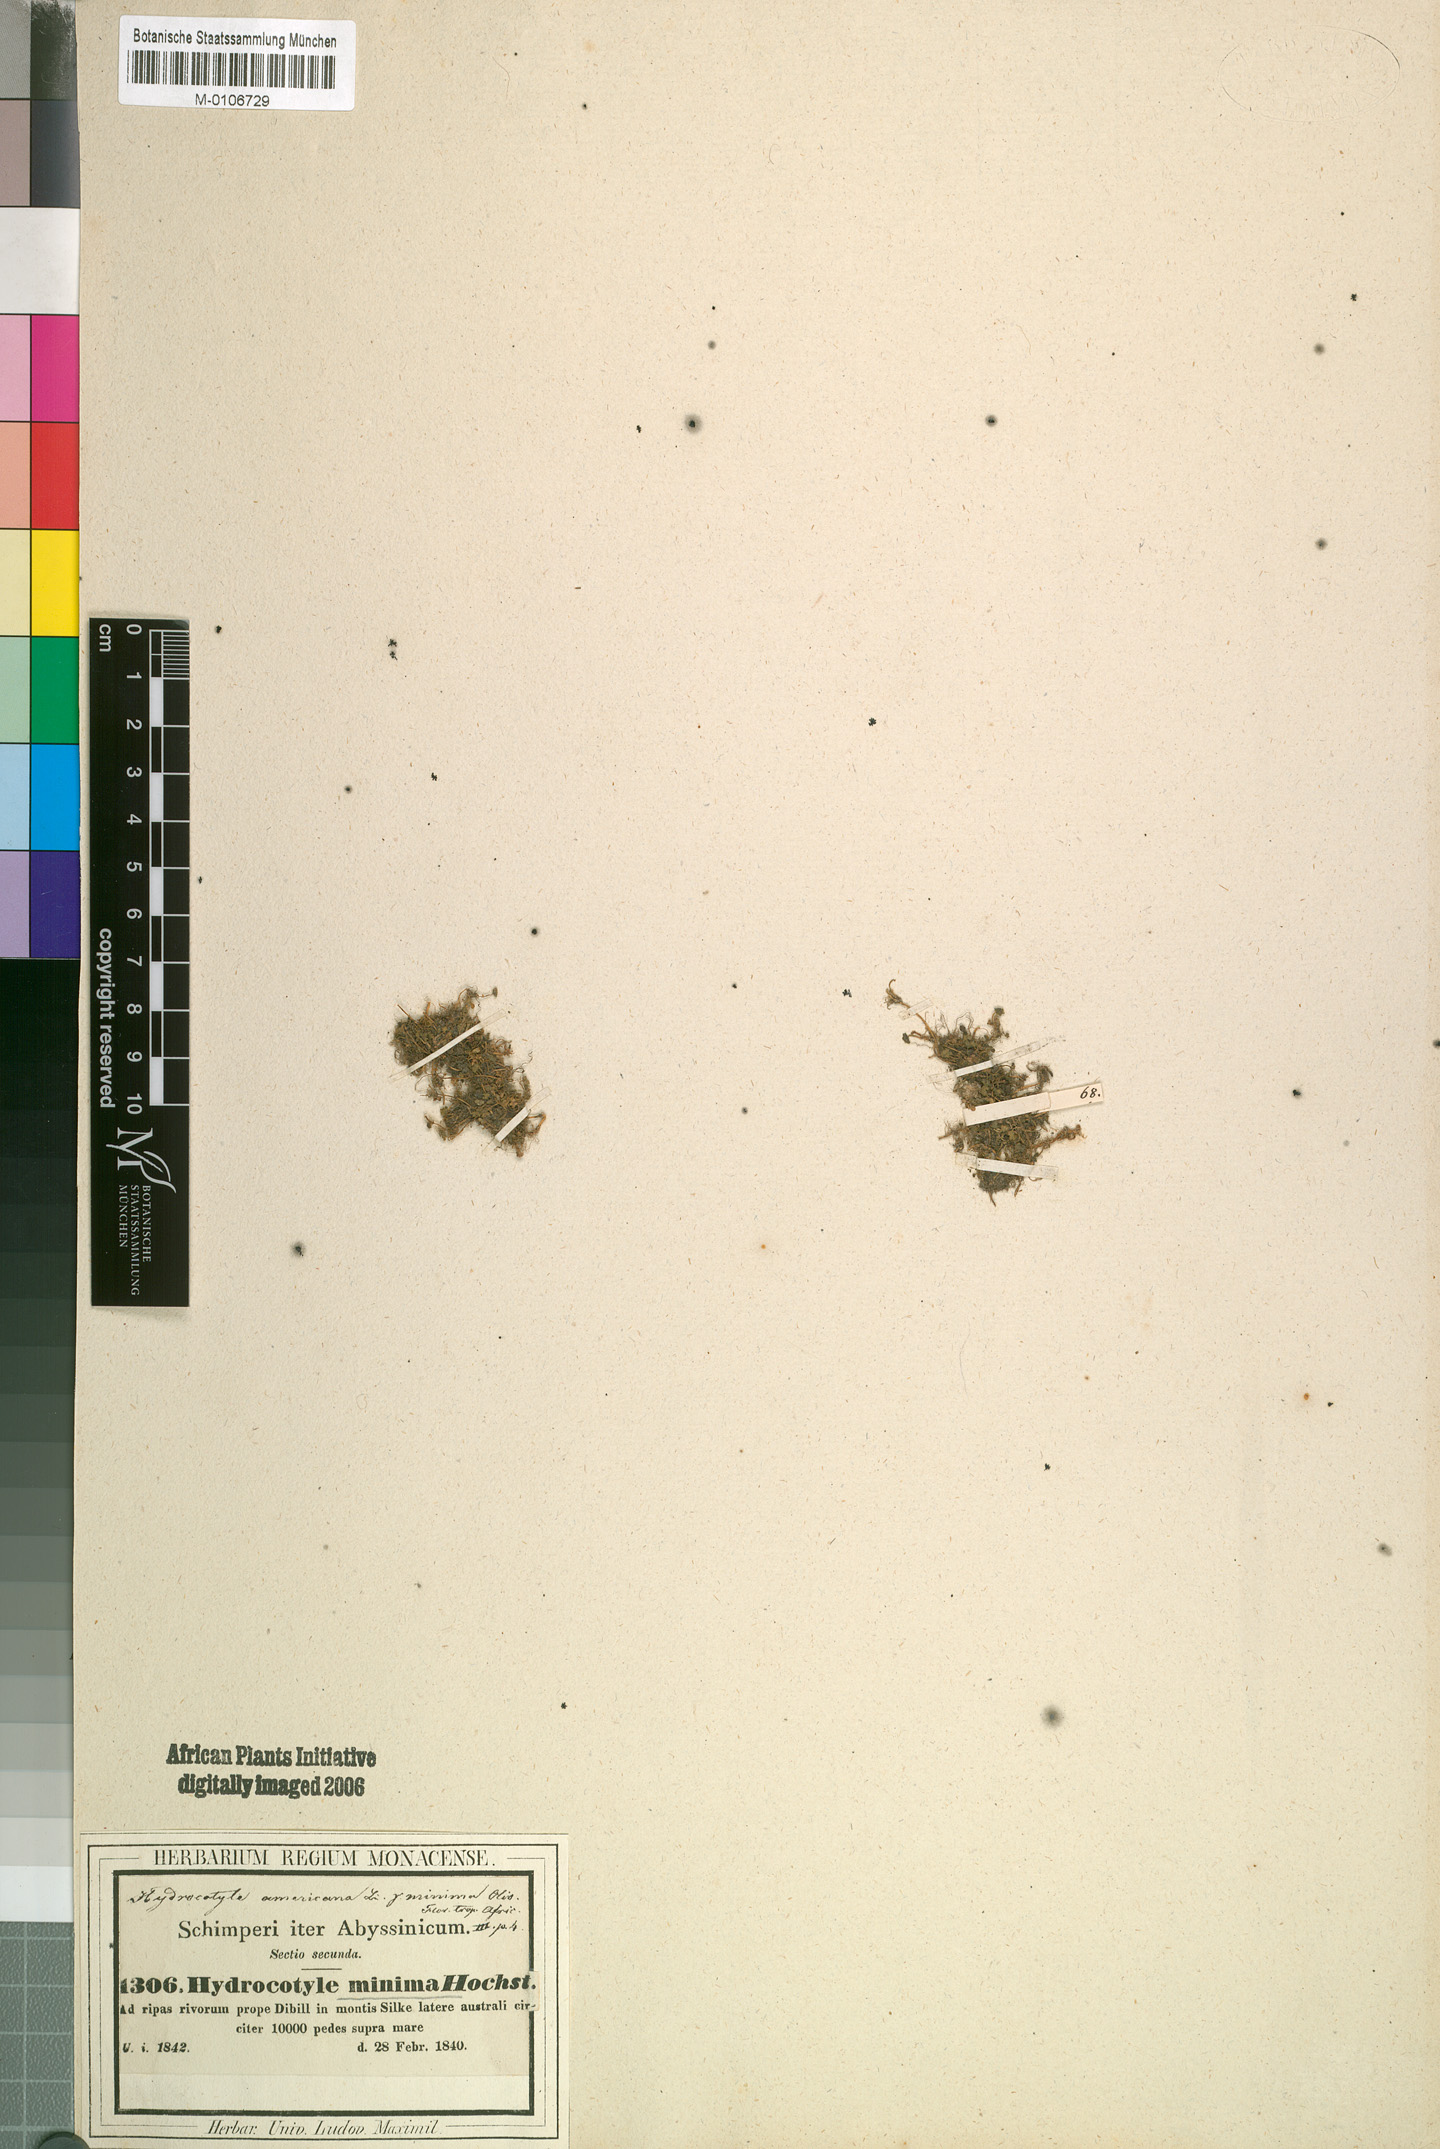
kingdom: Plantae
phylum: Tracheophyta
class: Magnoliopsida
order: Apiales
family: Araliaceae
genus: Hydrocotyle
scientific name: Hydrocotyle sibthorpioides
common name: Lawn marshpennywort
